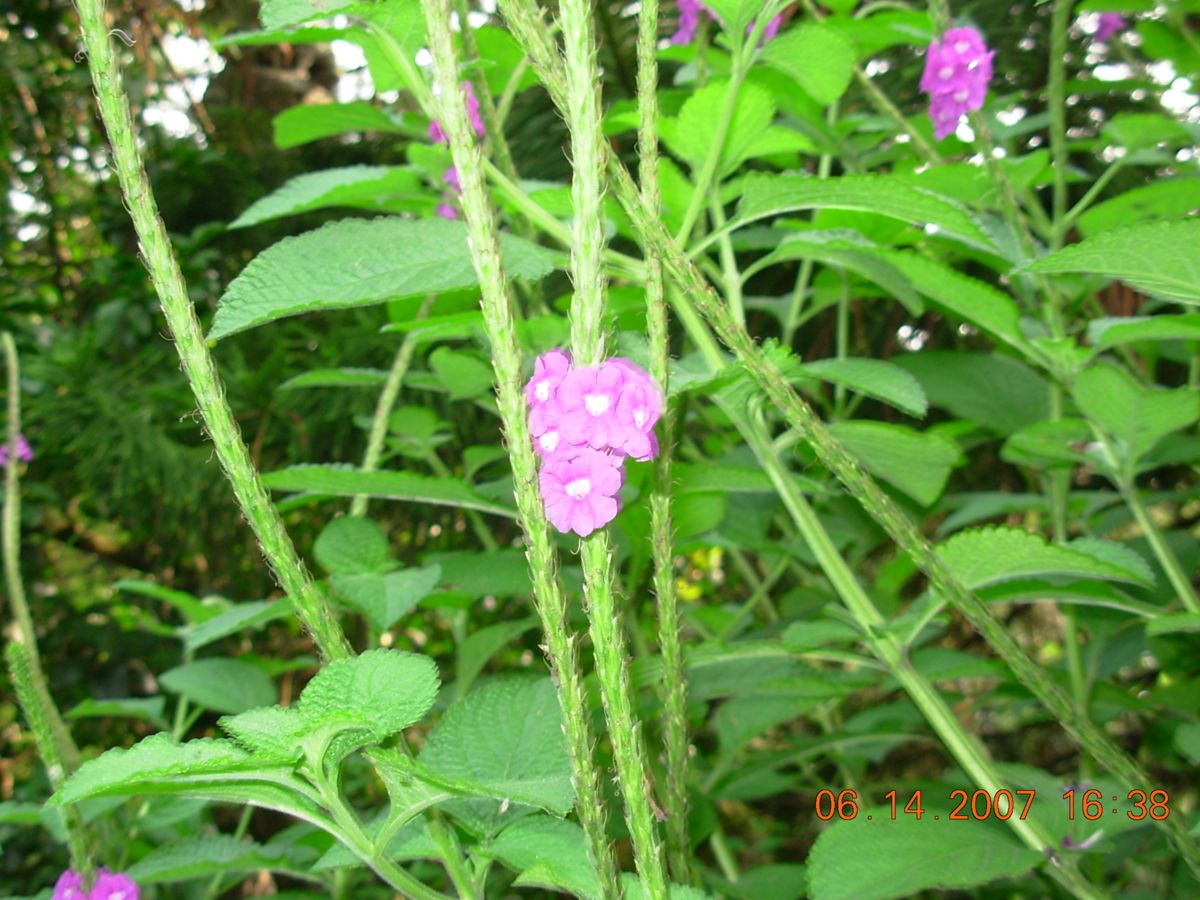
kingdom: Plantae
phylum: Tracheophyta
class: Magnoliopsida
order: Lamiales
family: Verbenaceae
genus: Stachytarpheta
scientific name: Stachytarpheta speciosa
